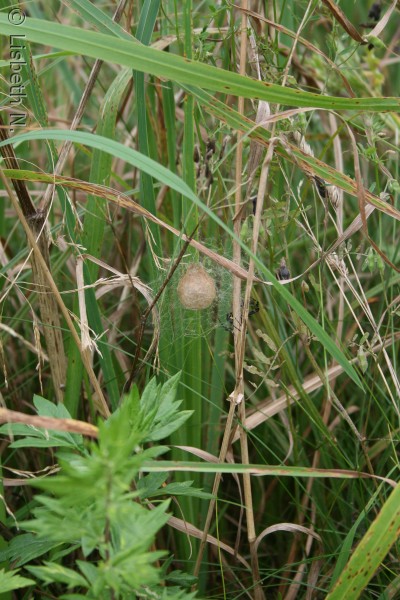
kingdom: Animalia
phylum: Arthropoda
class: Arachnida
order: Araneae
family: Araneidae
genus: Argiope
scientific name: Argiope bruennichi
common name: Hvepseedderkop
